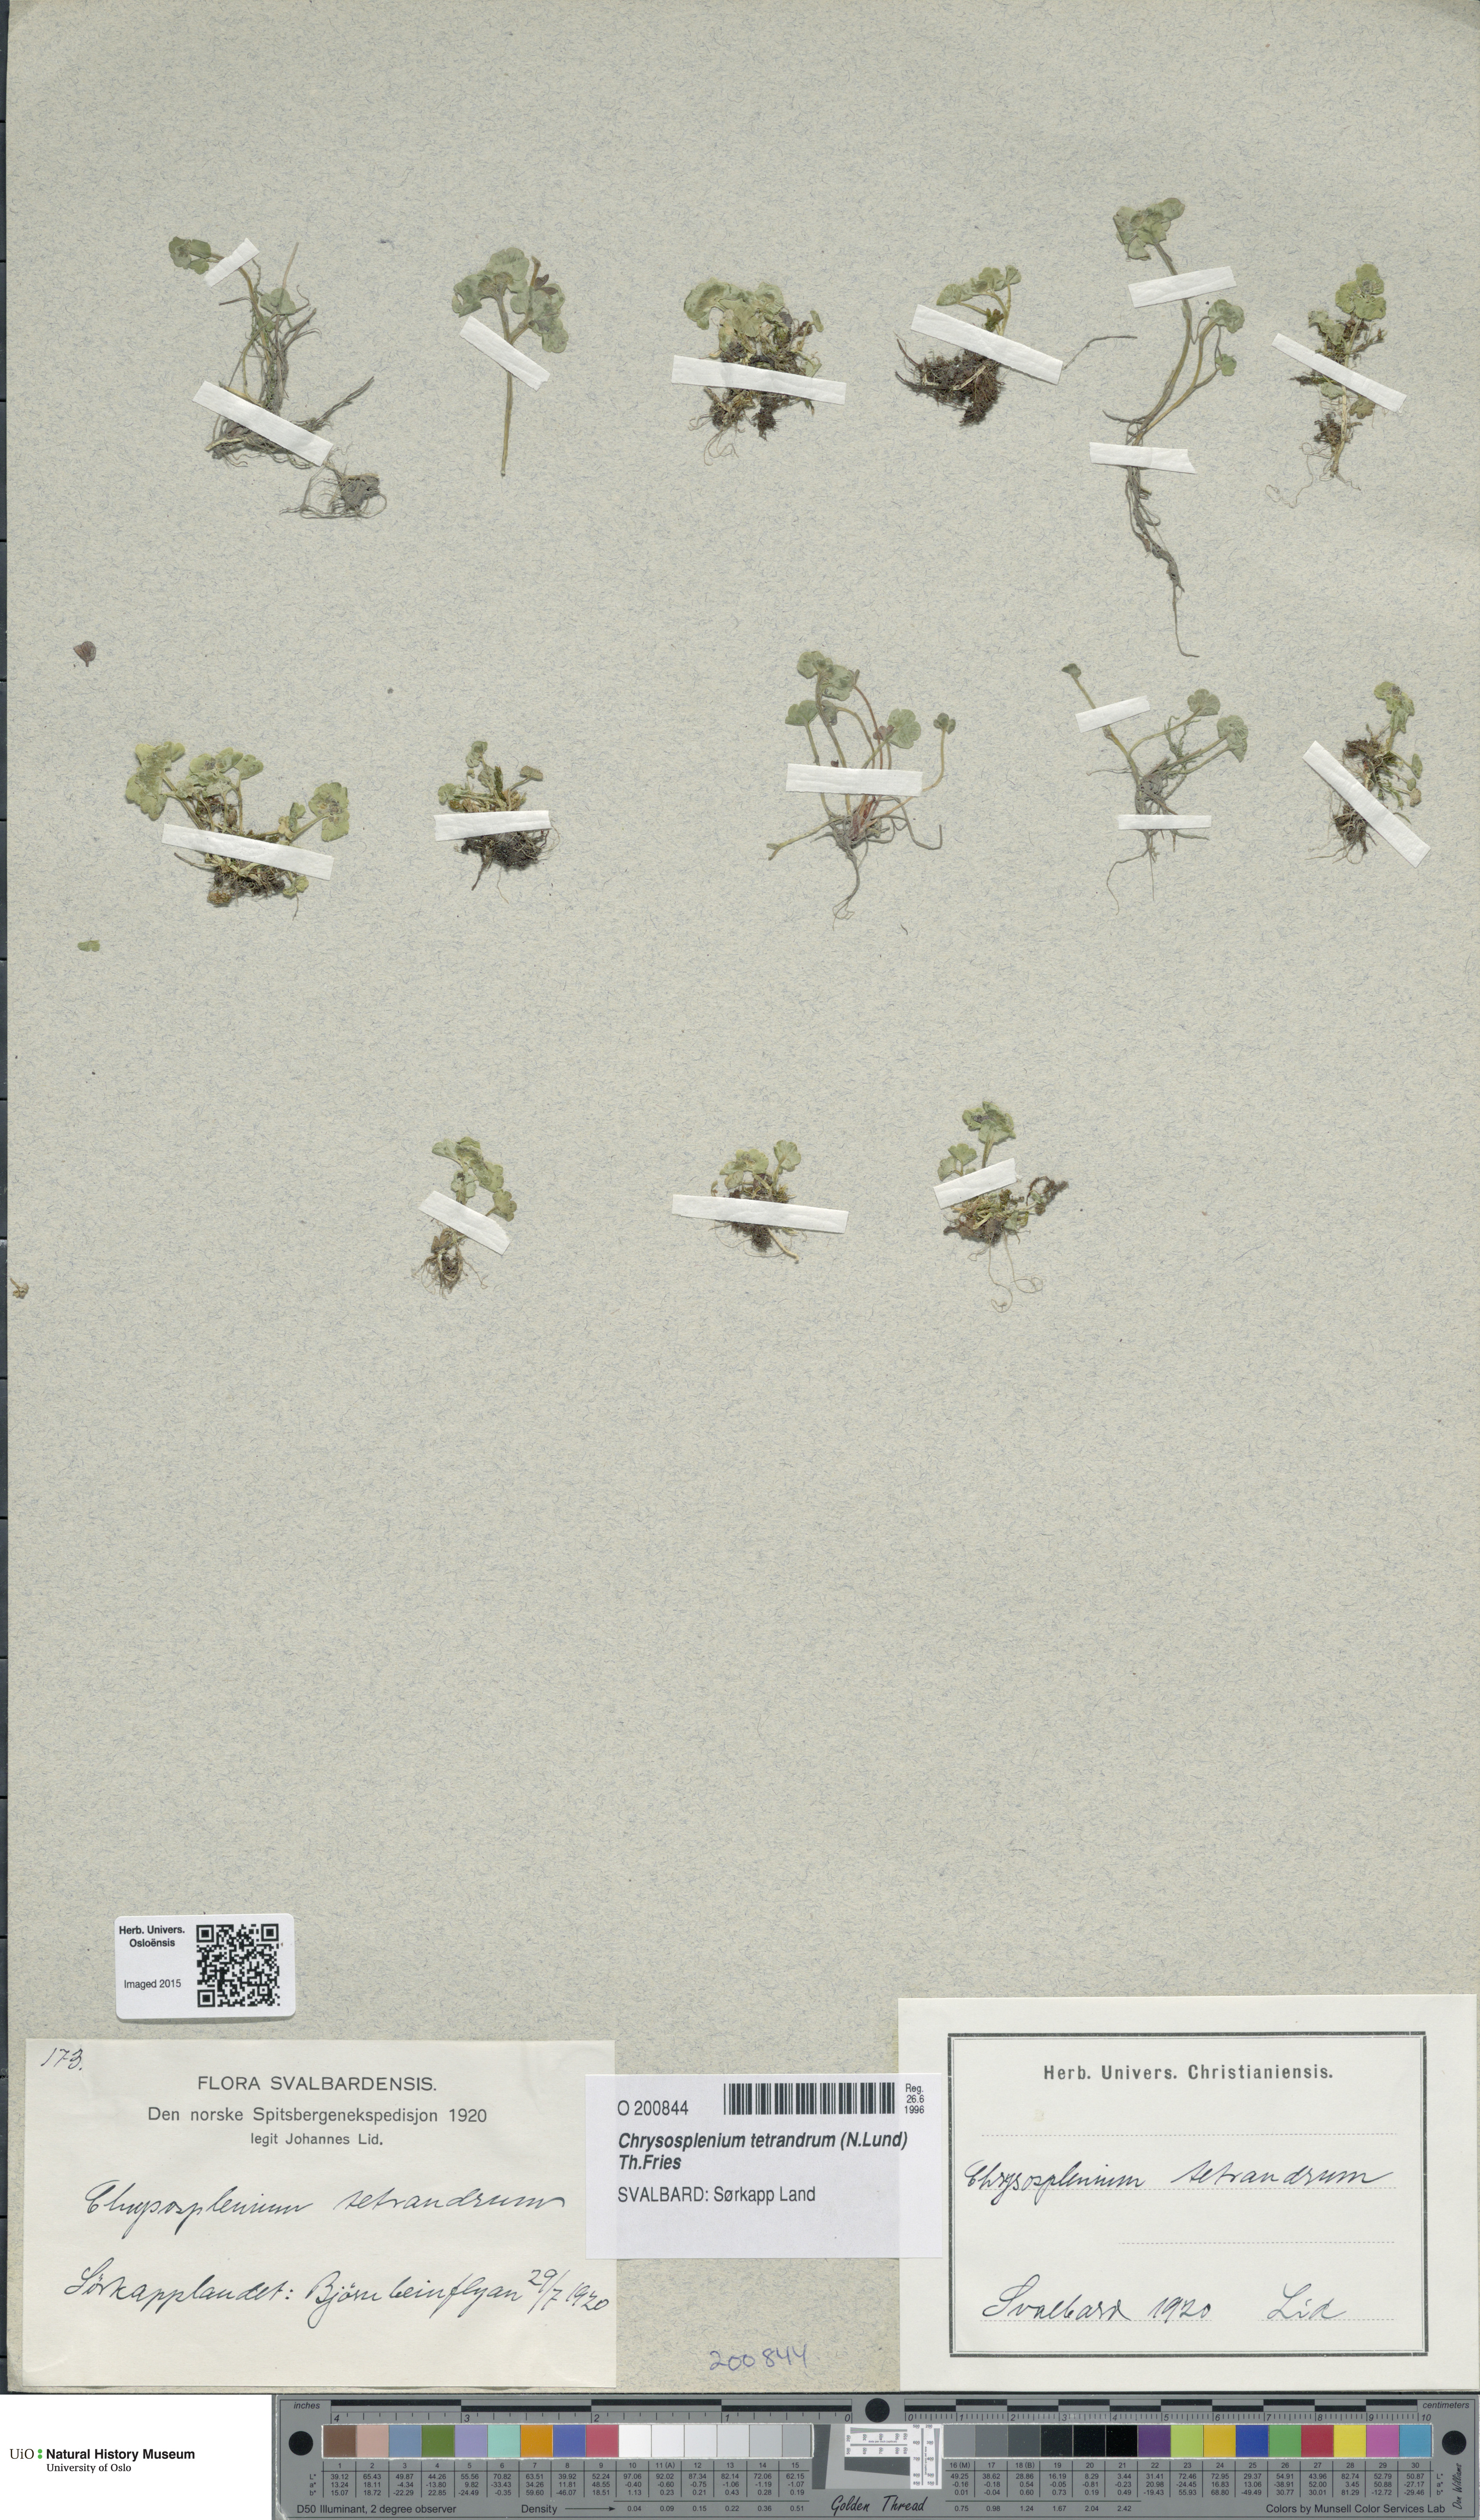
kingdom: Plantae
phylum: Tracheophyta
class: Magnoliopsida
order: Saxifragales
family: Saxifragaceae
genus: Chrysosplenium
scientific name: Chrysosplenium tetrandrum
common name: Green saxifrage
